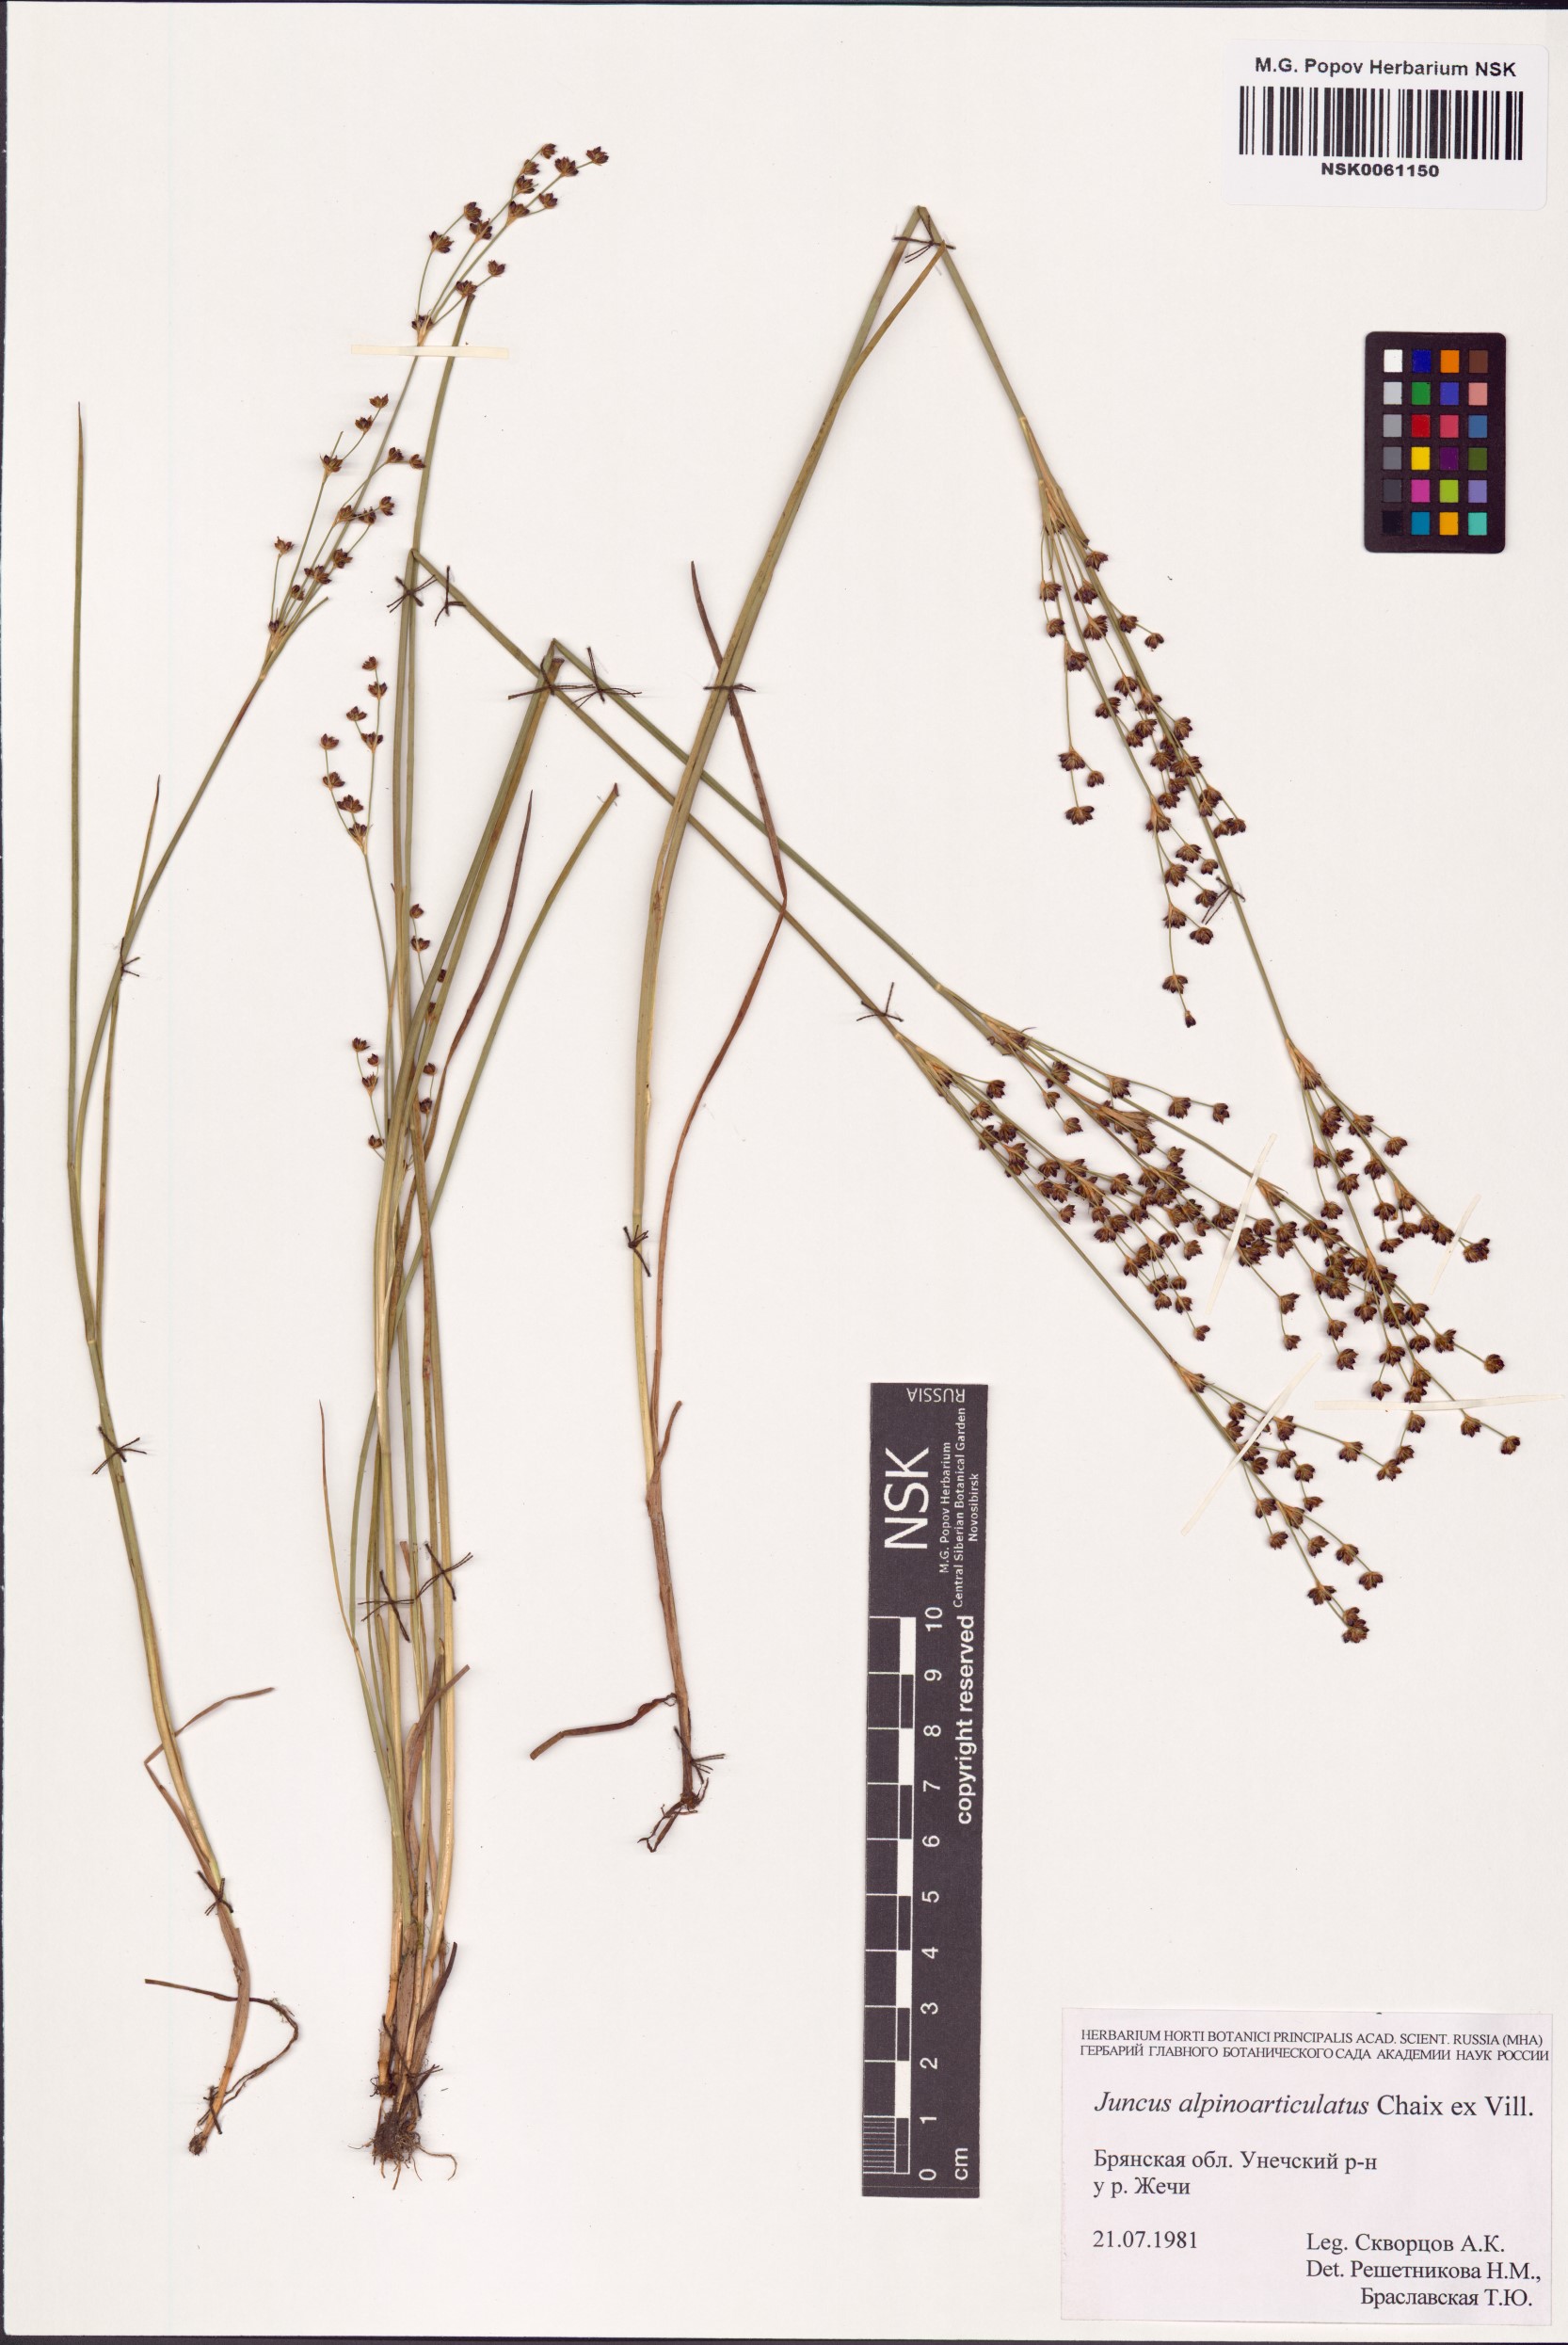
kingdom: Plantae
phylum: Tracheophyta
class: Liliopsida
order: Poales
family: Juncaceae
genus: Juncus
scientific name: Juncus alpinoarticulatus
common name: Alpine rush
